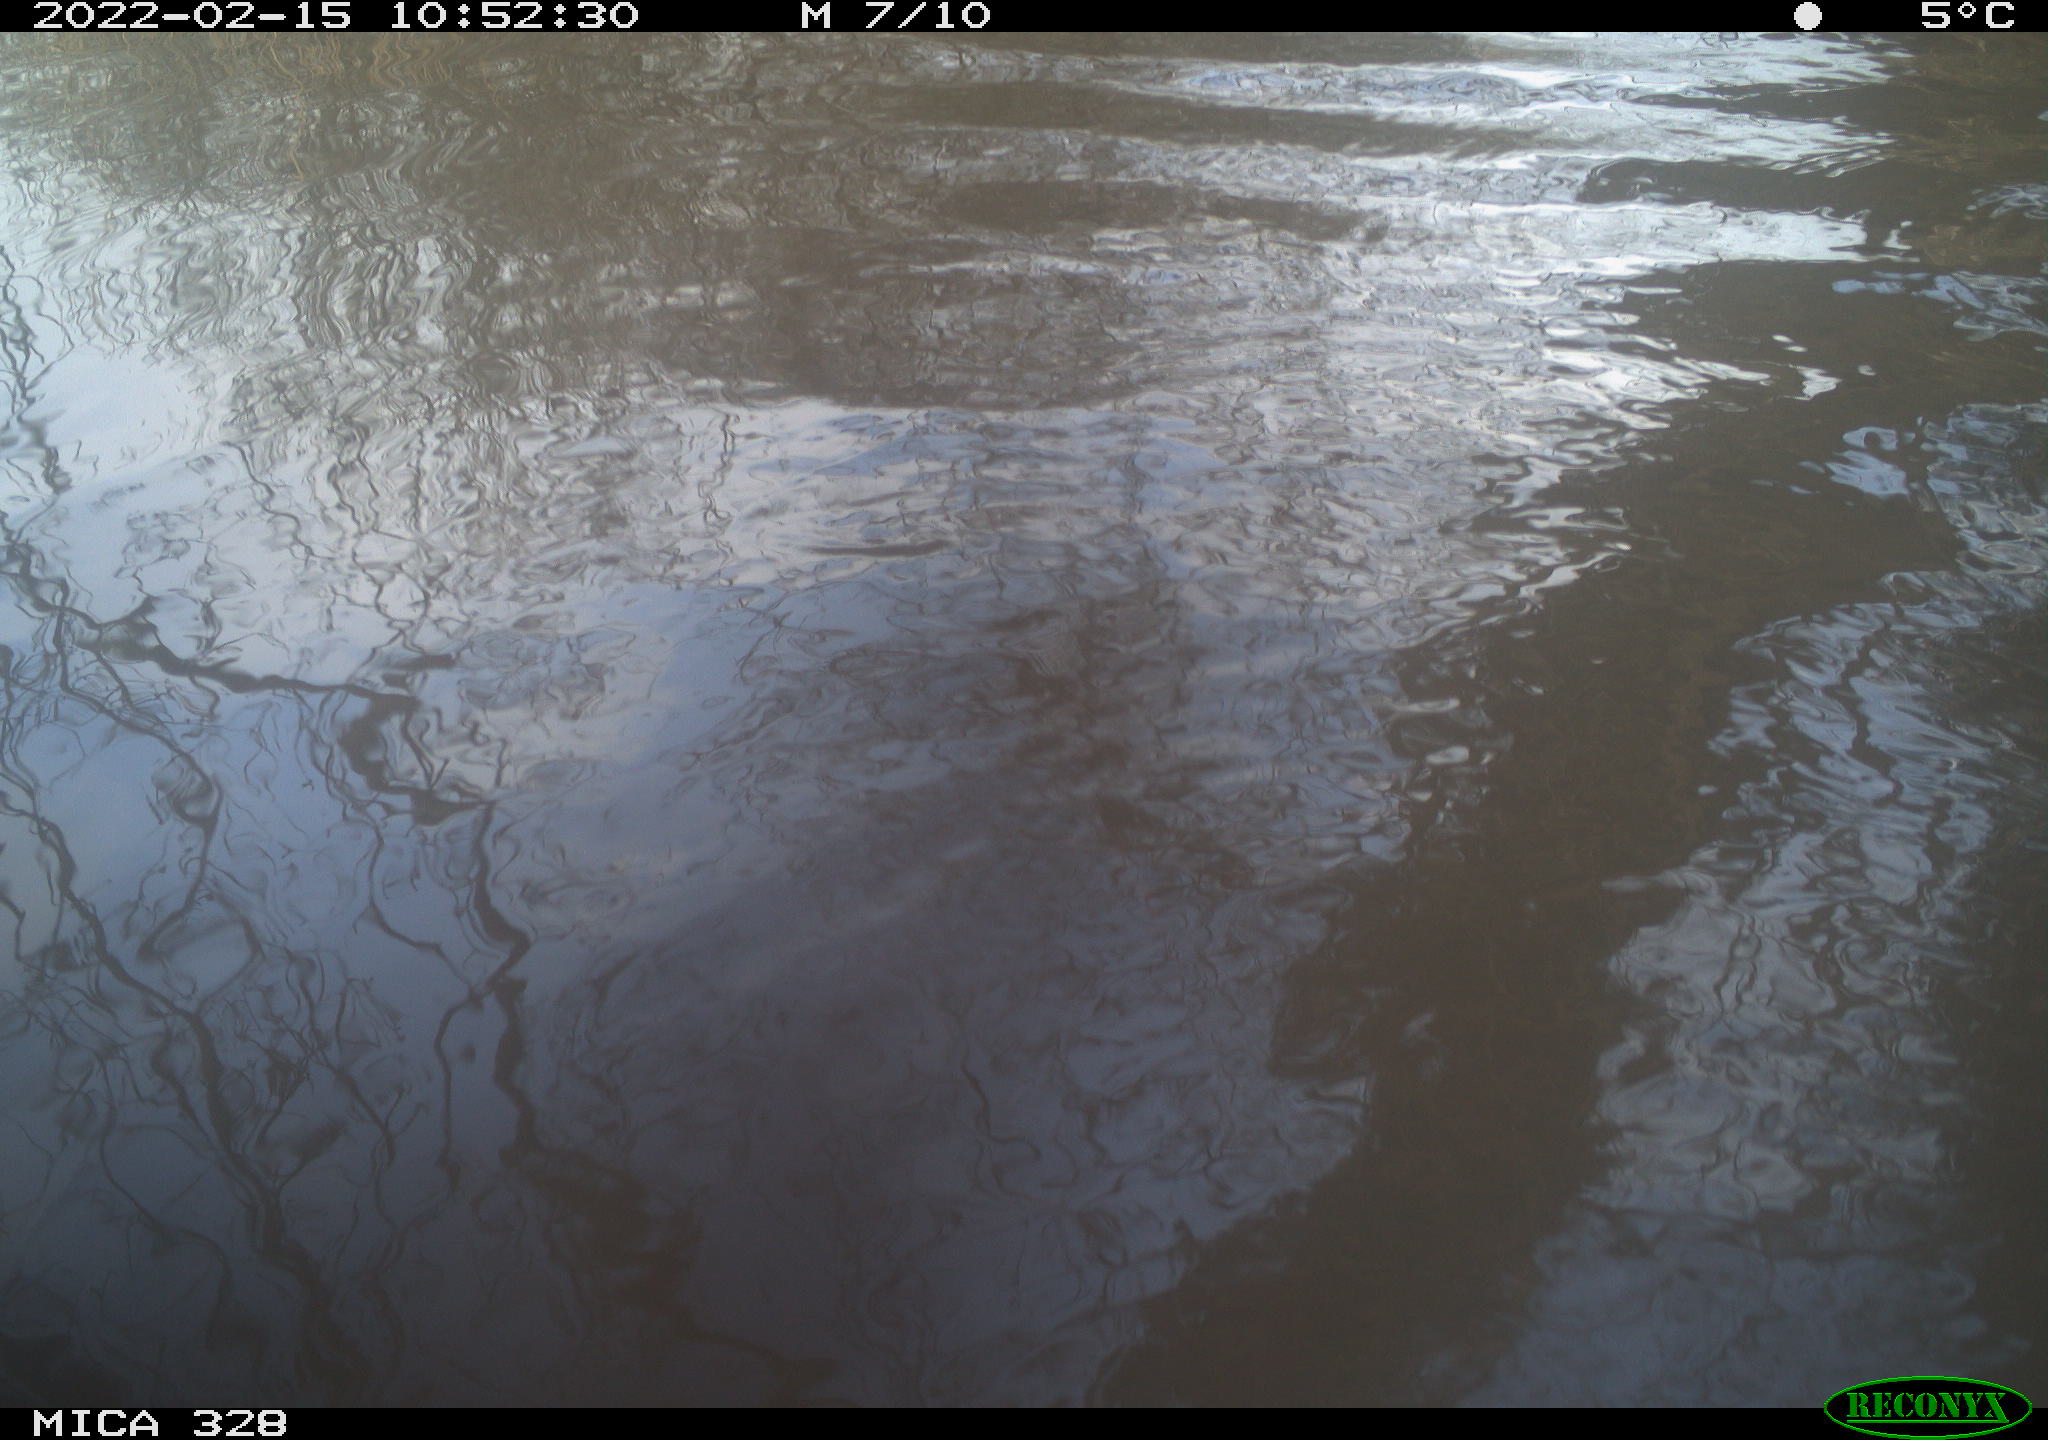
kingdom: Animalia
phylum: Chordata
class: Mammalia
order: Rodentia
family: Cricetidae
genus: Ondatra
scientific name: Ondatra zibethicus
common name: Muskrat
